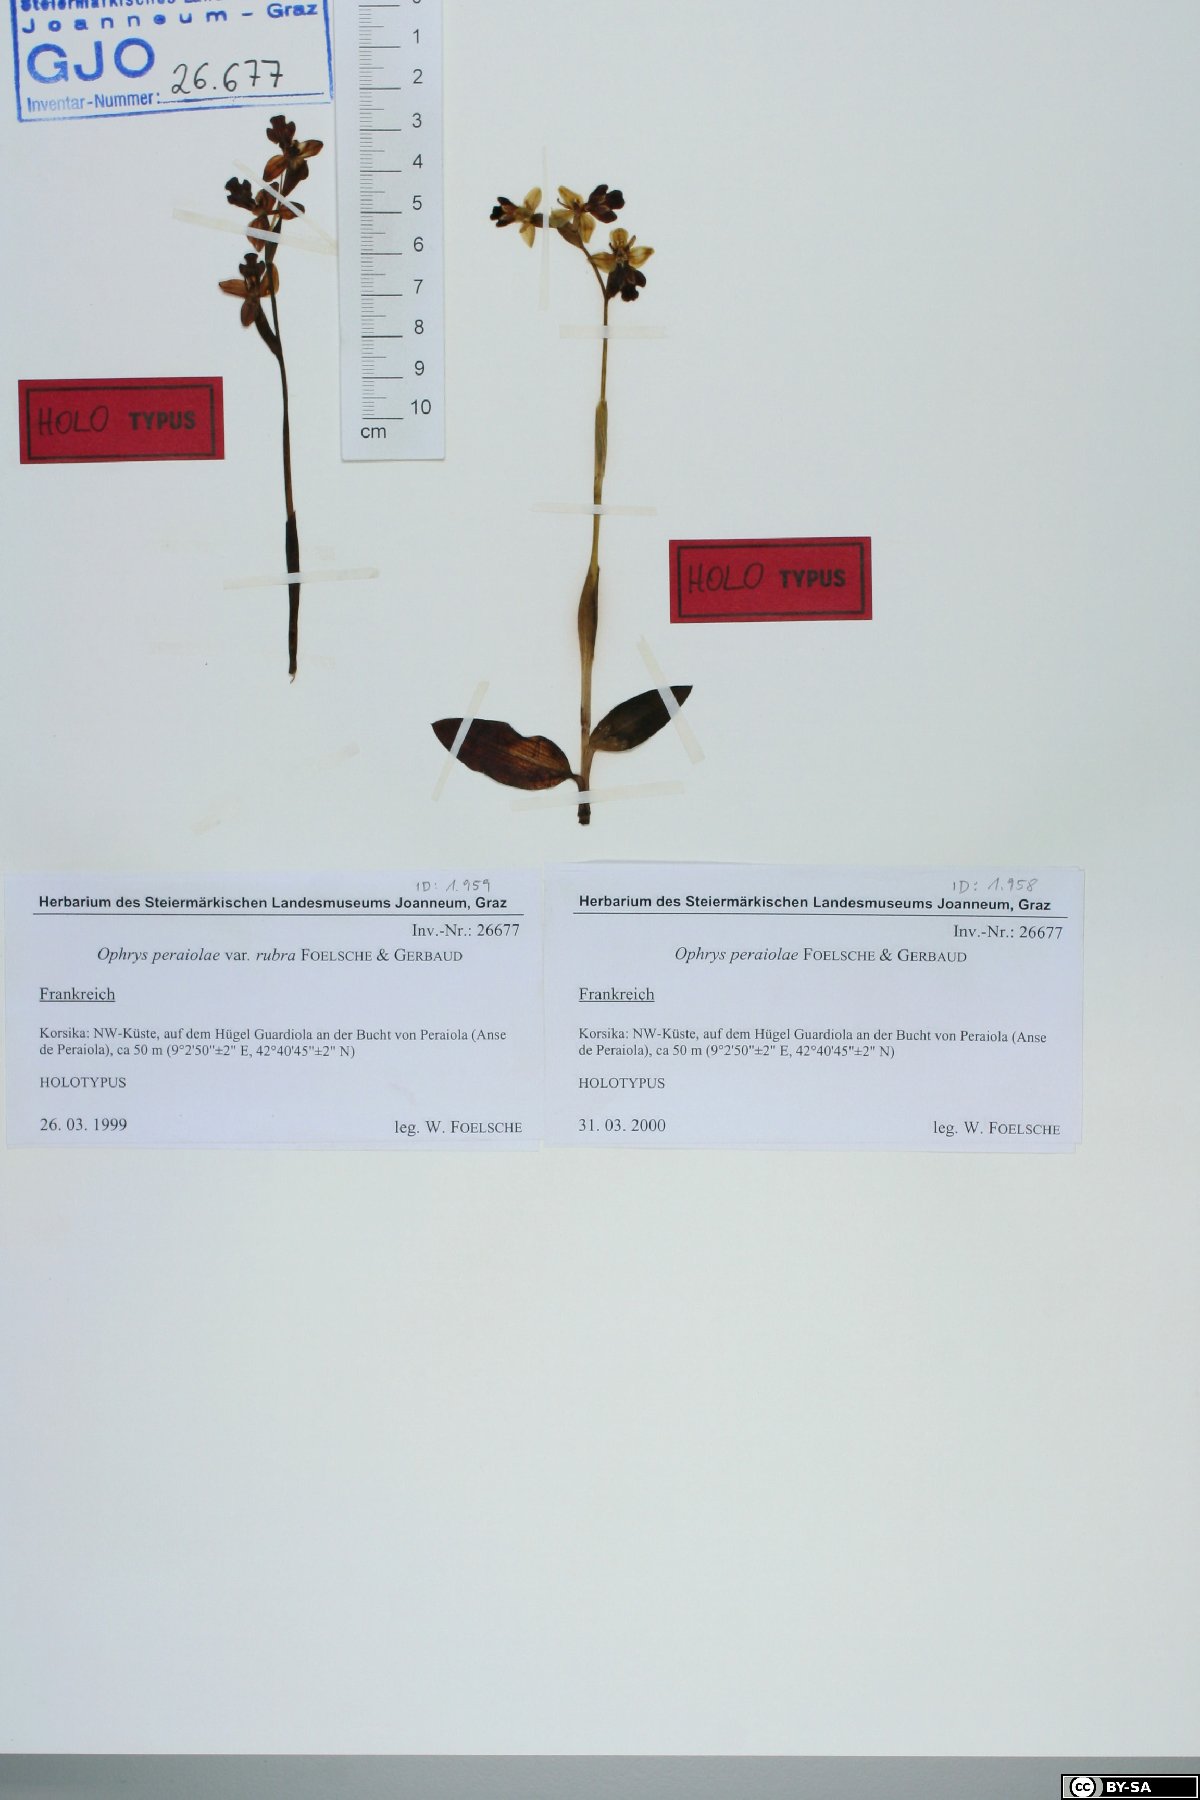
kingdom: Plantae
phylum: Tracheophyta
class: Liliopsida
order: Asparagales
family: Orchidaceae
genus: Ophrys
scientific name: Ophrys fusca
